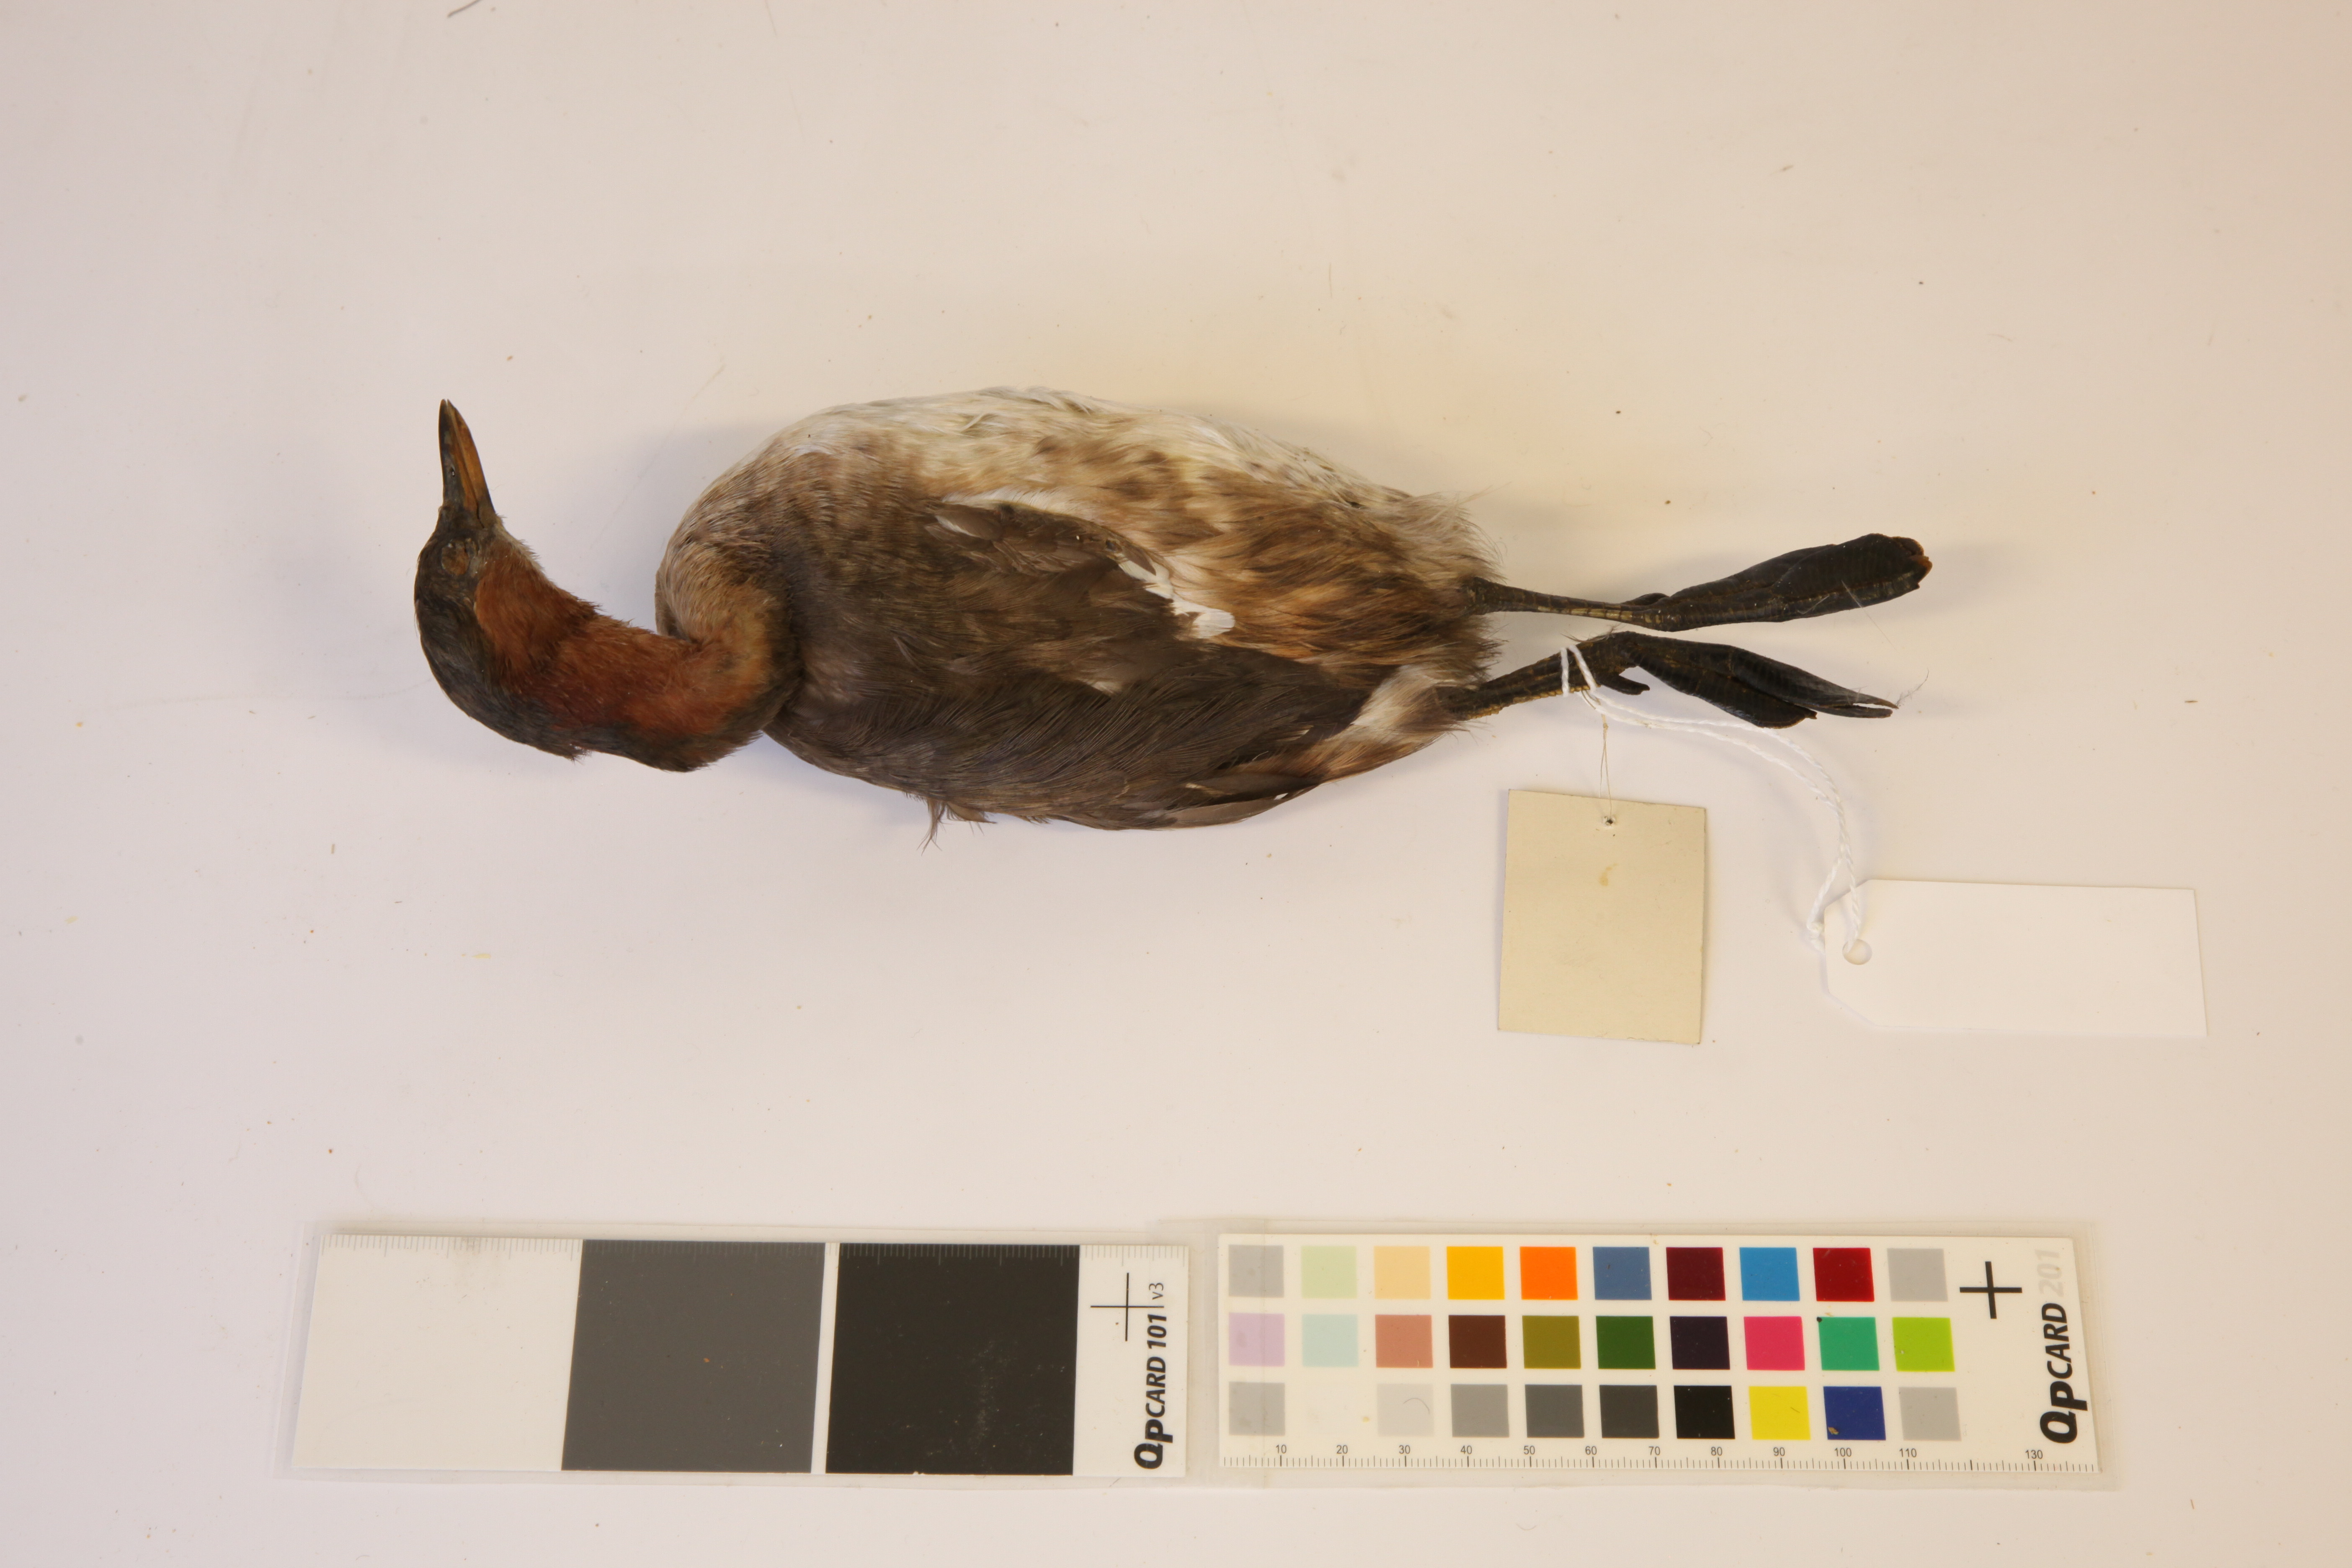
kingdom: Animalia
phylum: Chordata
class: Aves
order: Podicipediformes
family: Podicipedidae
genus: Tachybaptus
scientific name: Tachybaptus ruficollis
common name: Little grebe
